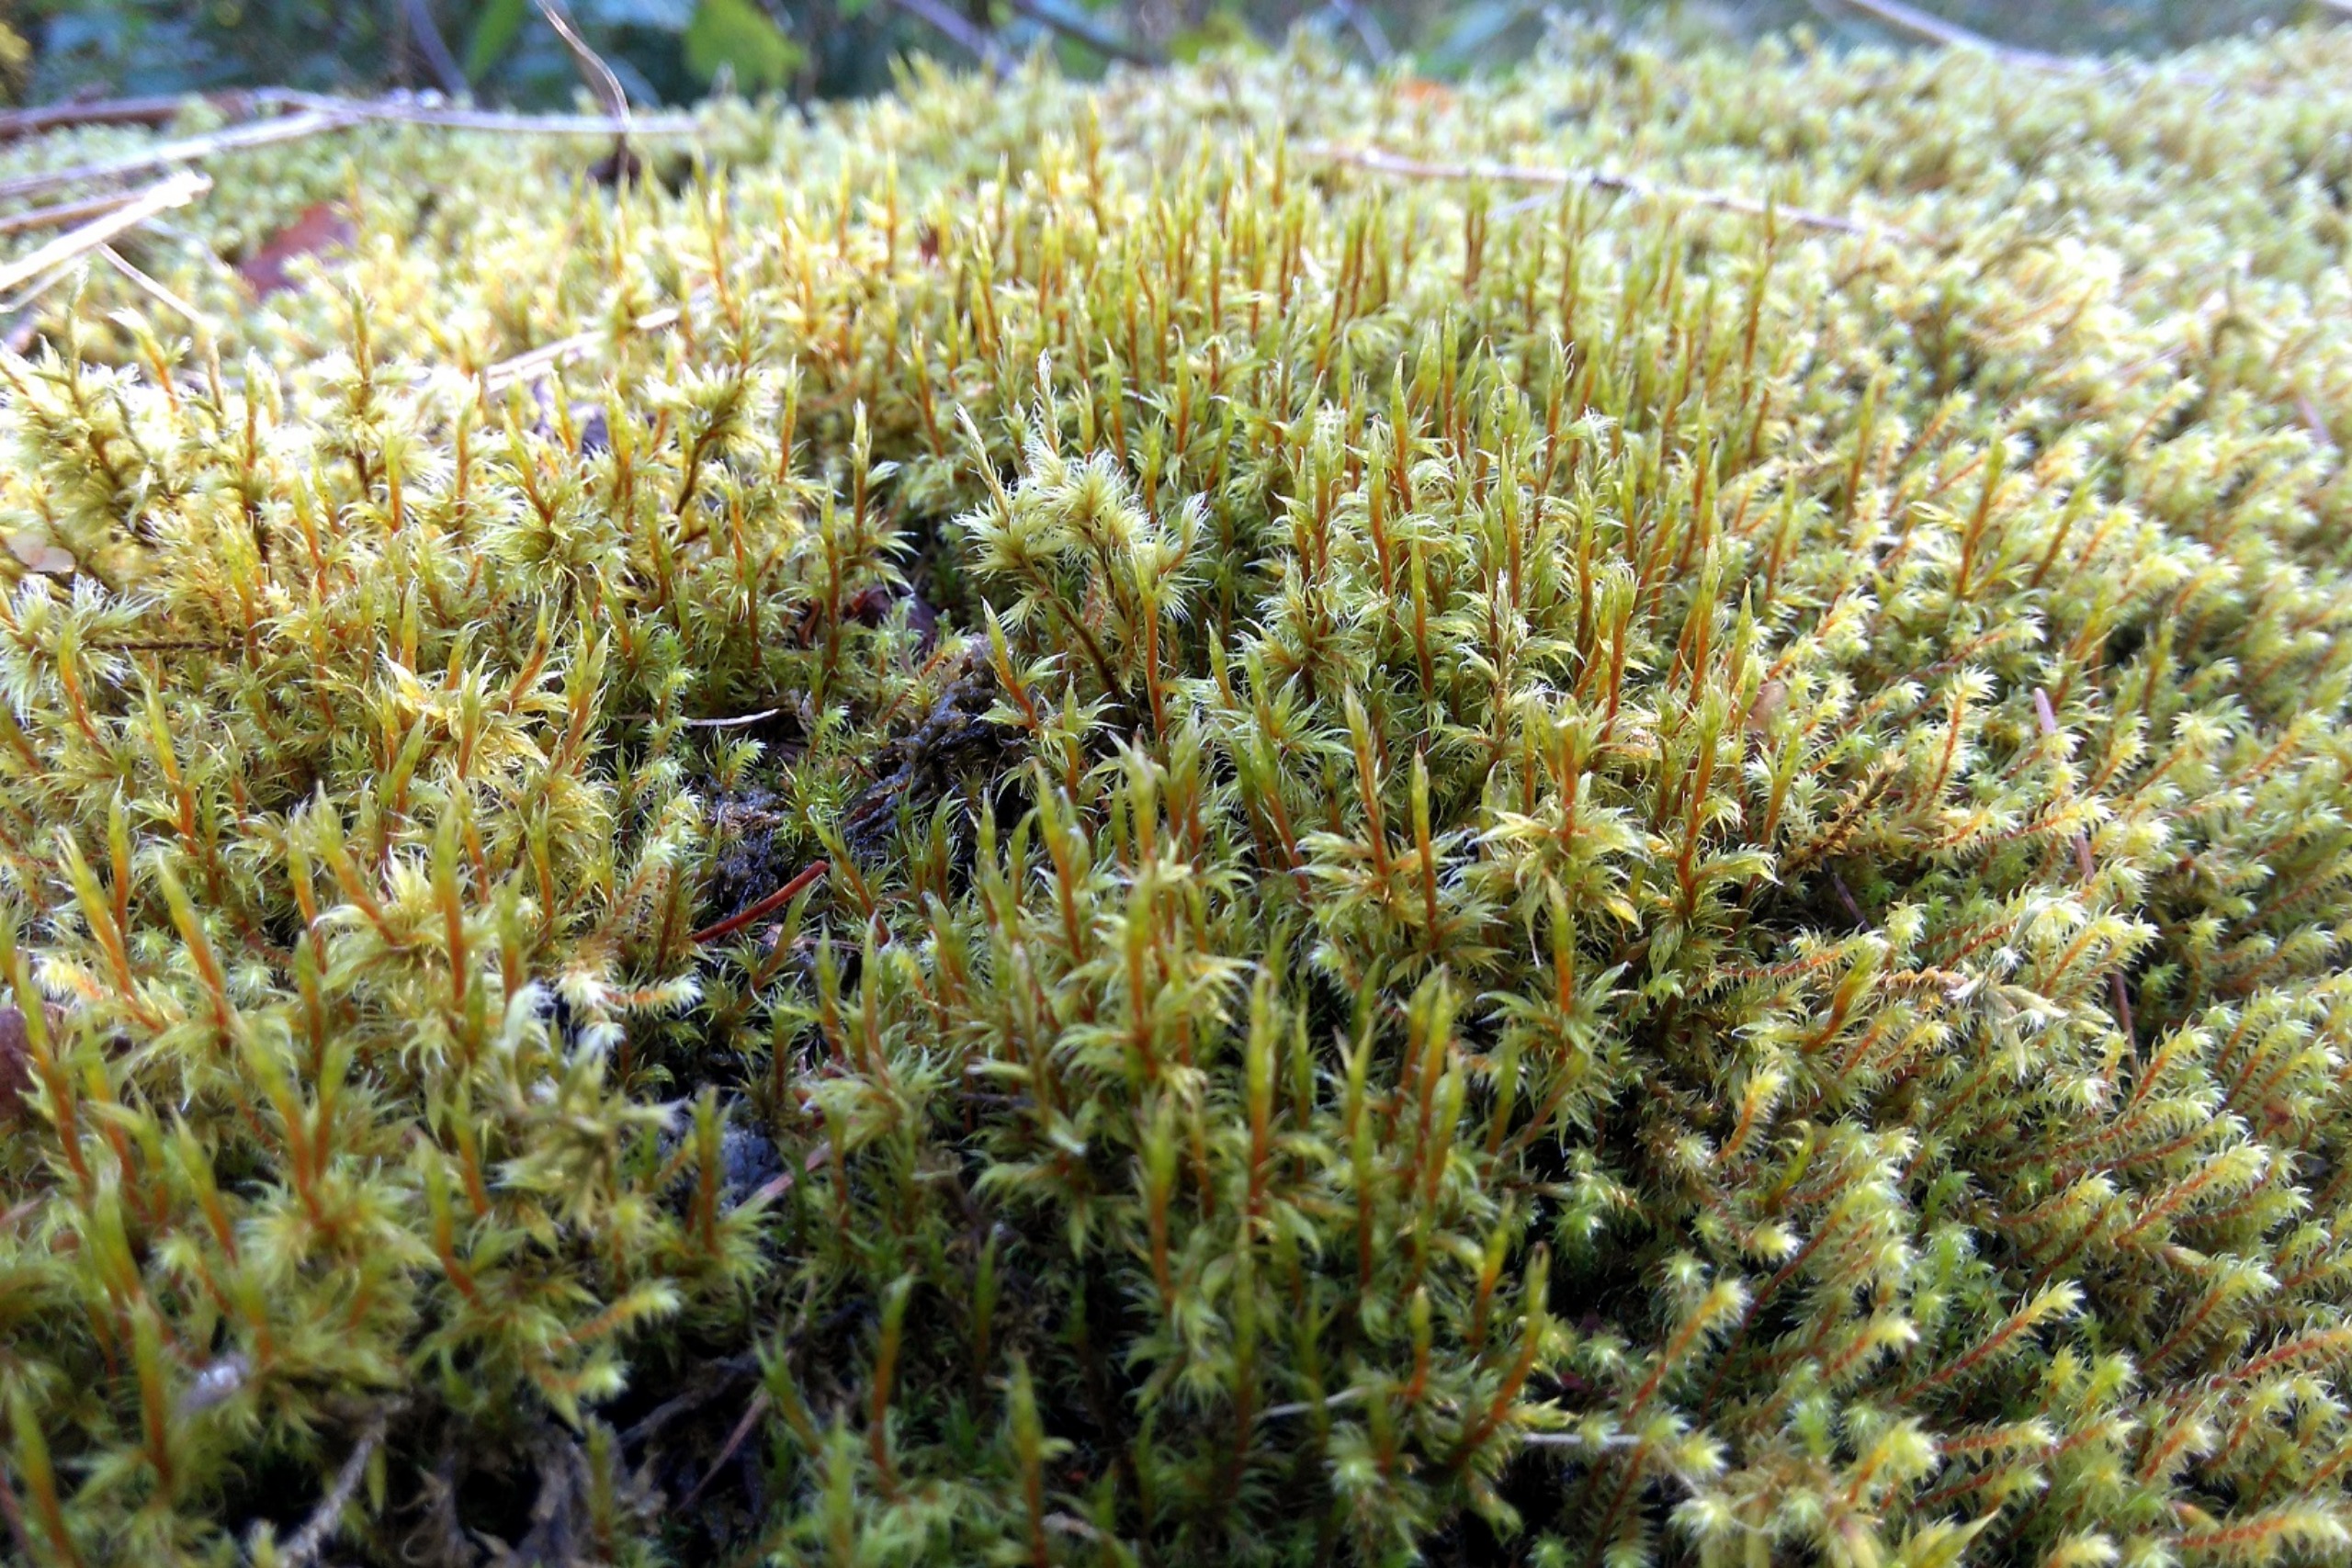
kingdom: Plantae
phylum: Bryophyta
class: Bryopsida
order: Grimmiales
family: Grimmiaceae
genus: Racomitrium
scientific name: Racomitrium lanuginosum
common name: Stor børstemos
